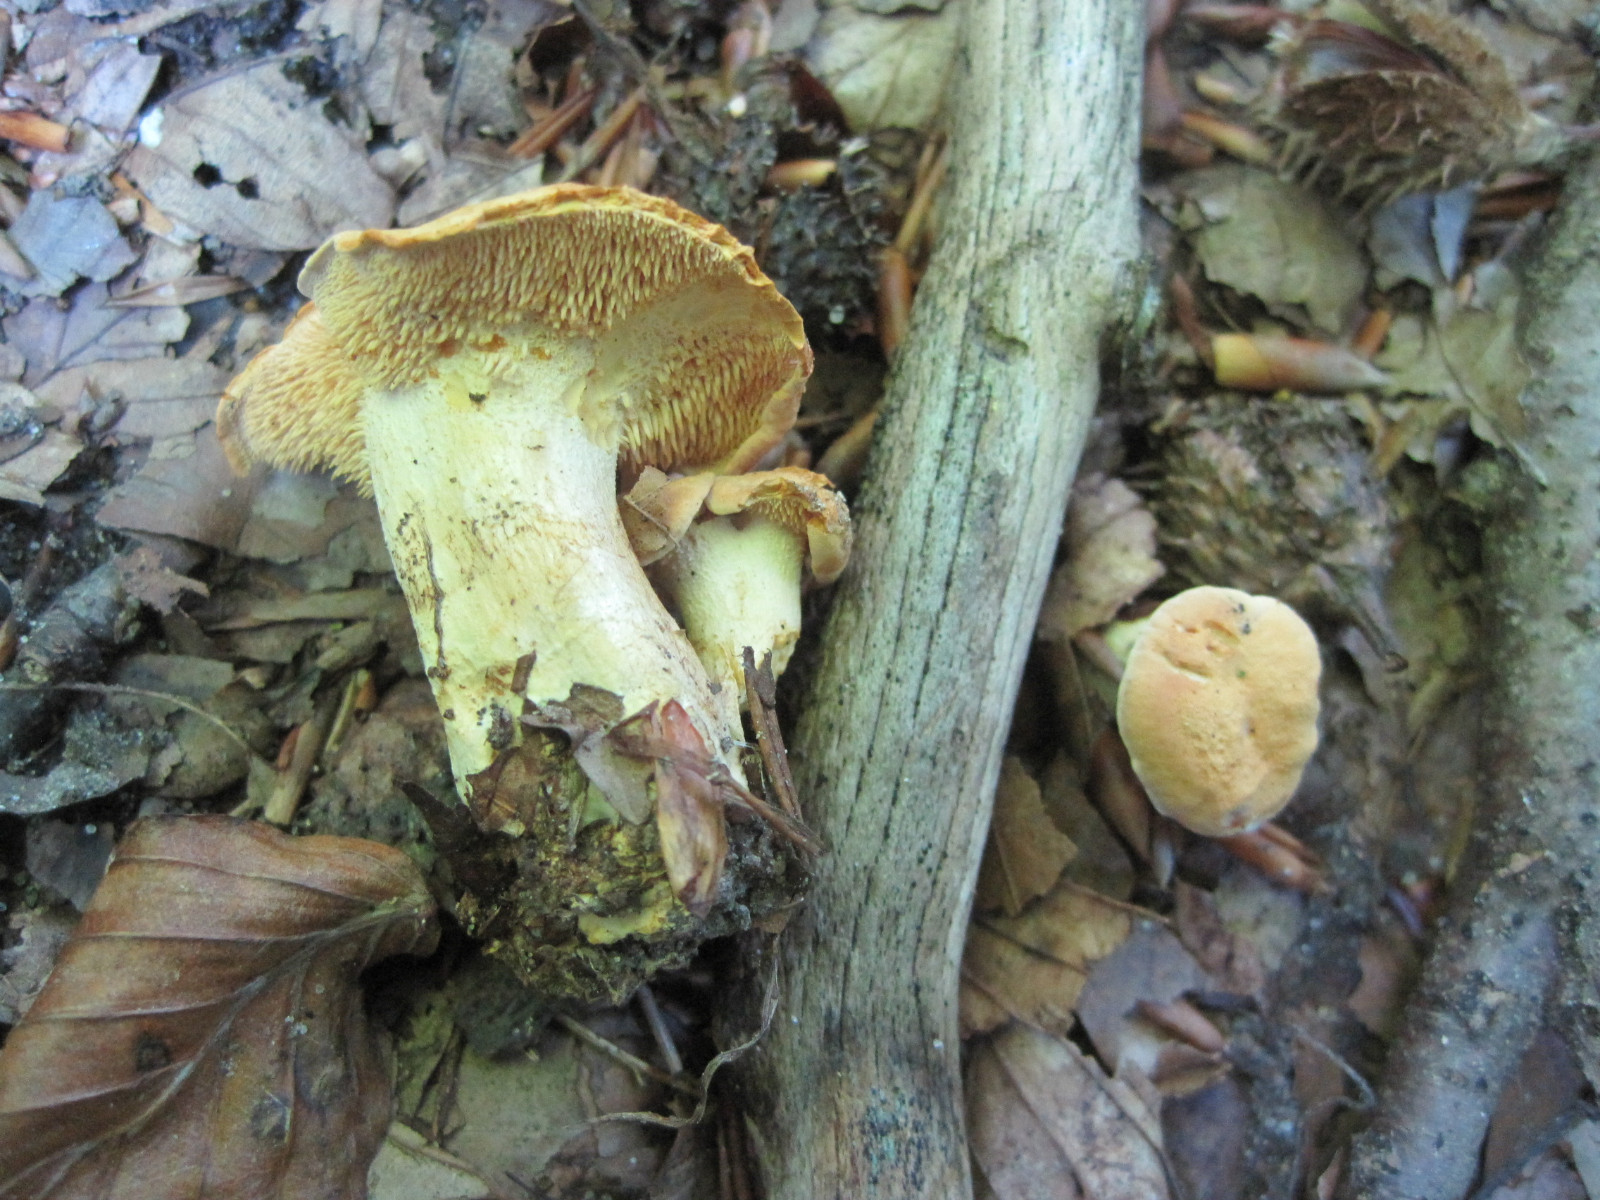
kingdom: Fungi
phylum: Basidiomycota
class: Agaricomycetes
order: Cantharellales
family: Hydnaceae
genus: Hydnum
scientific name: Hydnum repandum
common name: almindelig pigsvamp
